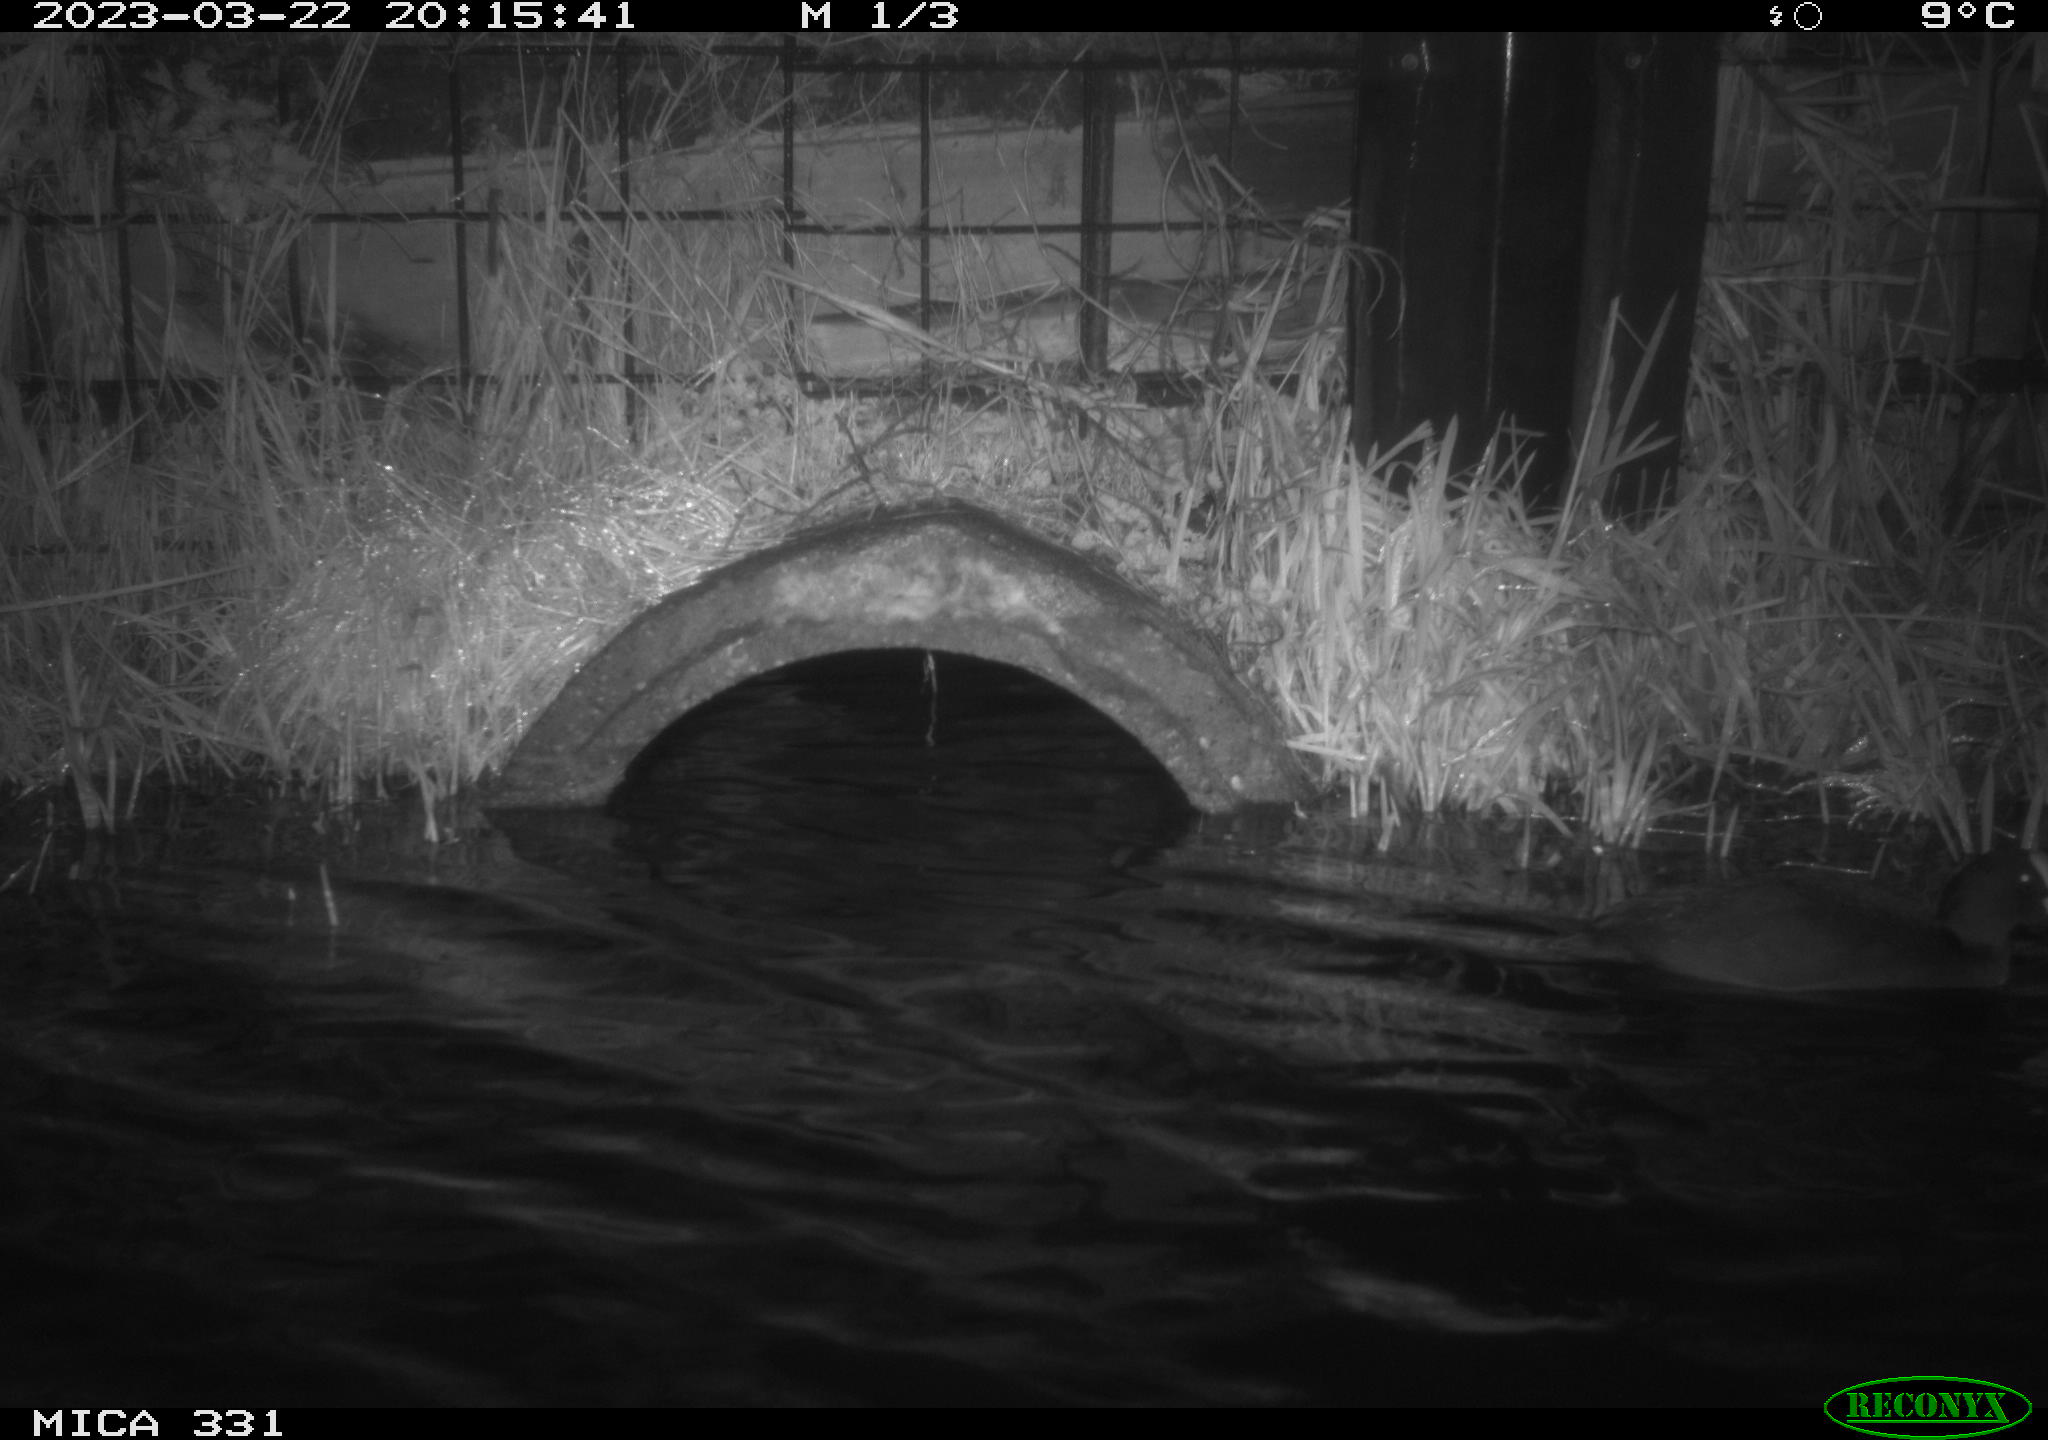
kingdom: Animalia
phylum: Chordata
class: Aves
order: Gruiformes
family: Rallidae
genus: Fulica
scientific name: Fulica atra
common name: Eurasian coot
